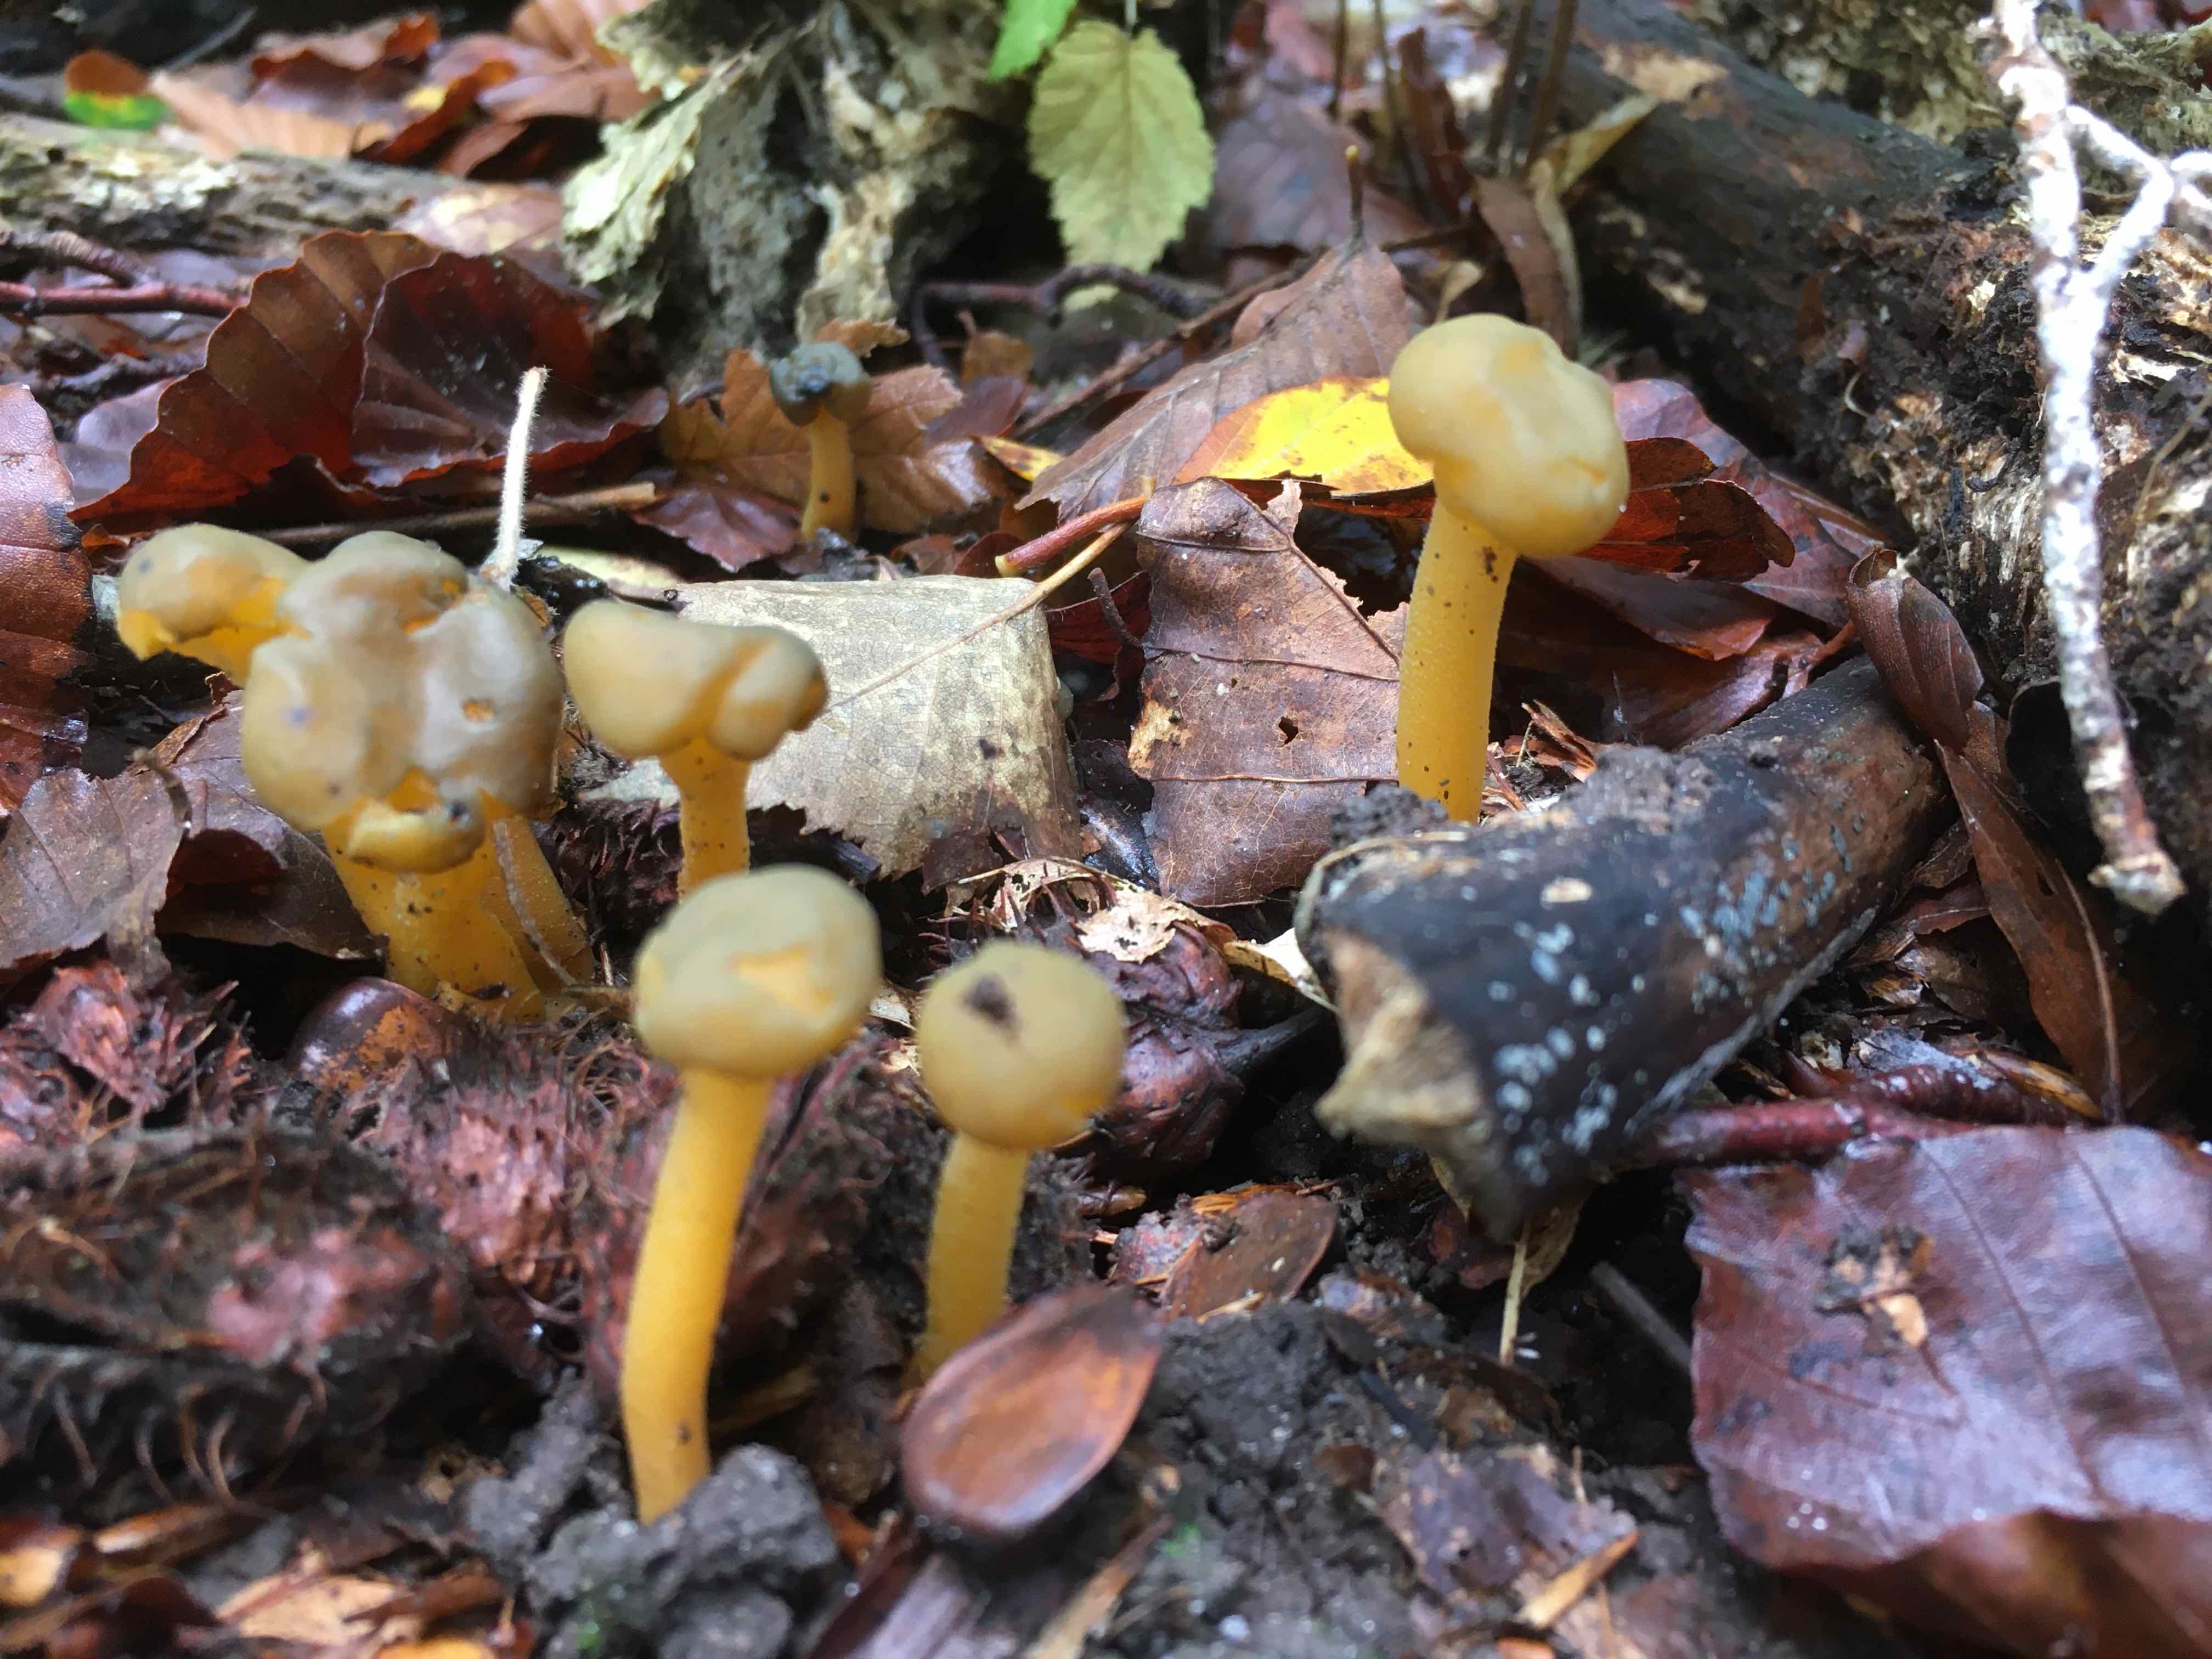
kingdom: Fungi
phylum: Ascomycota
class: Leotiomycetes
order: Leotiales
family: Leotiaceae
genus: Leotia
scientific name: Leotia lubrica
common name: ravsvamp
